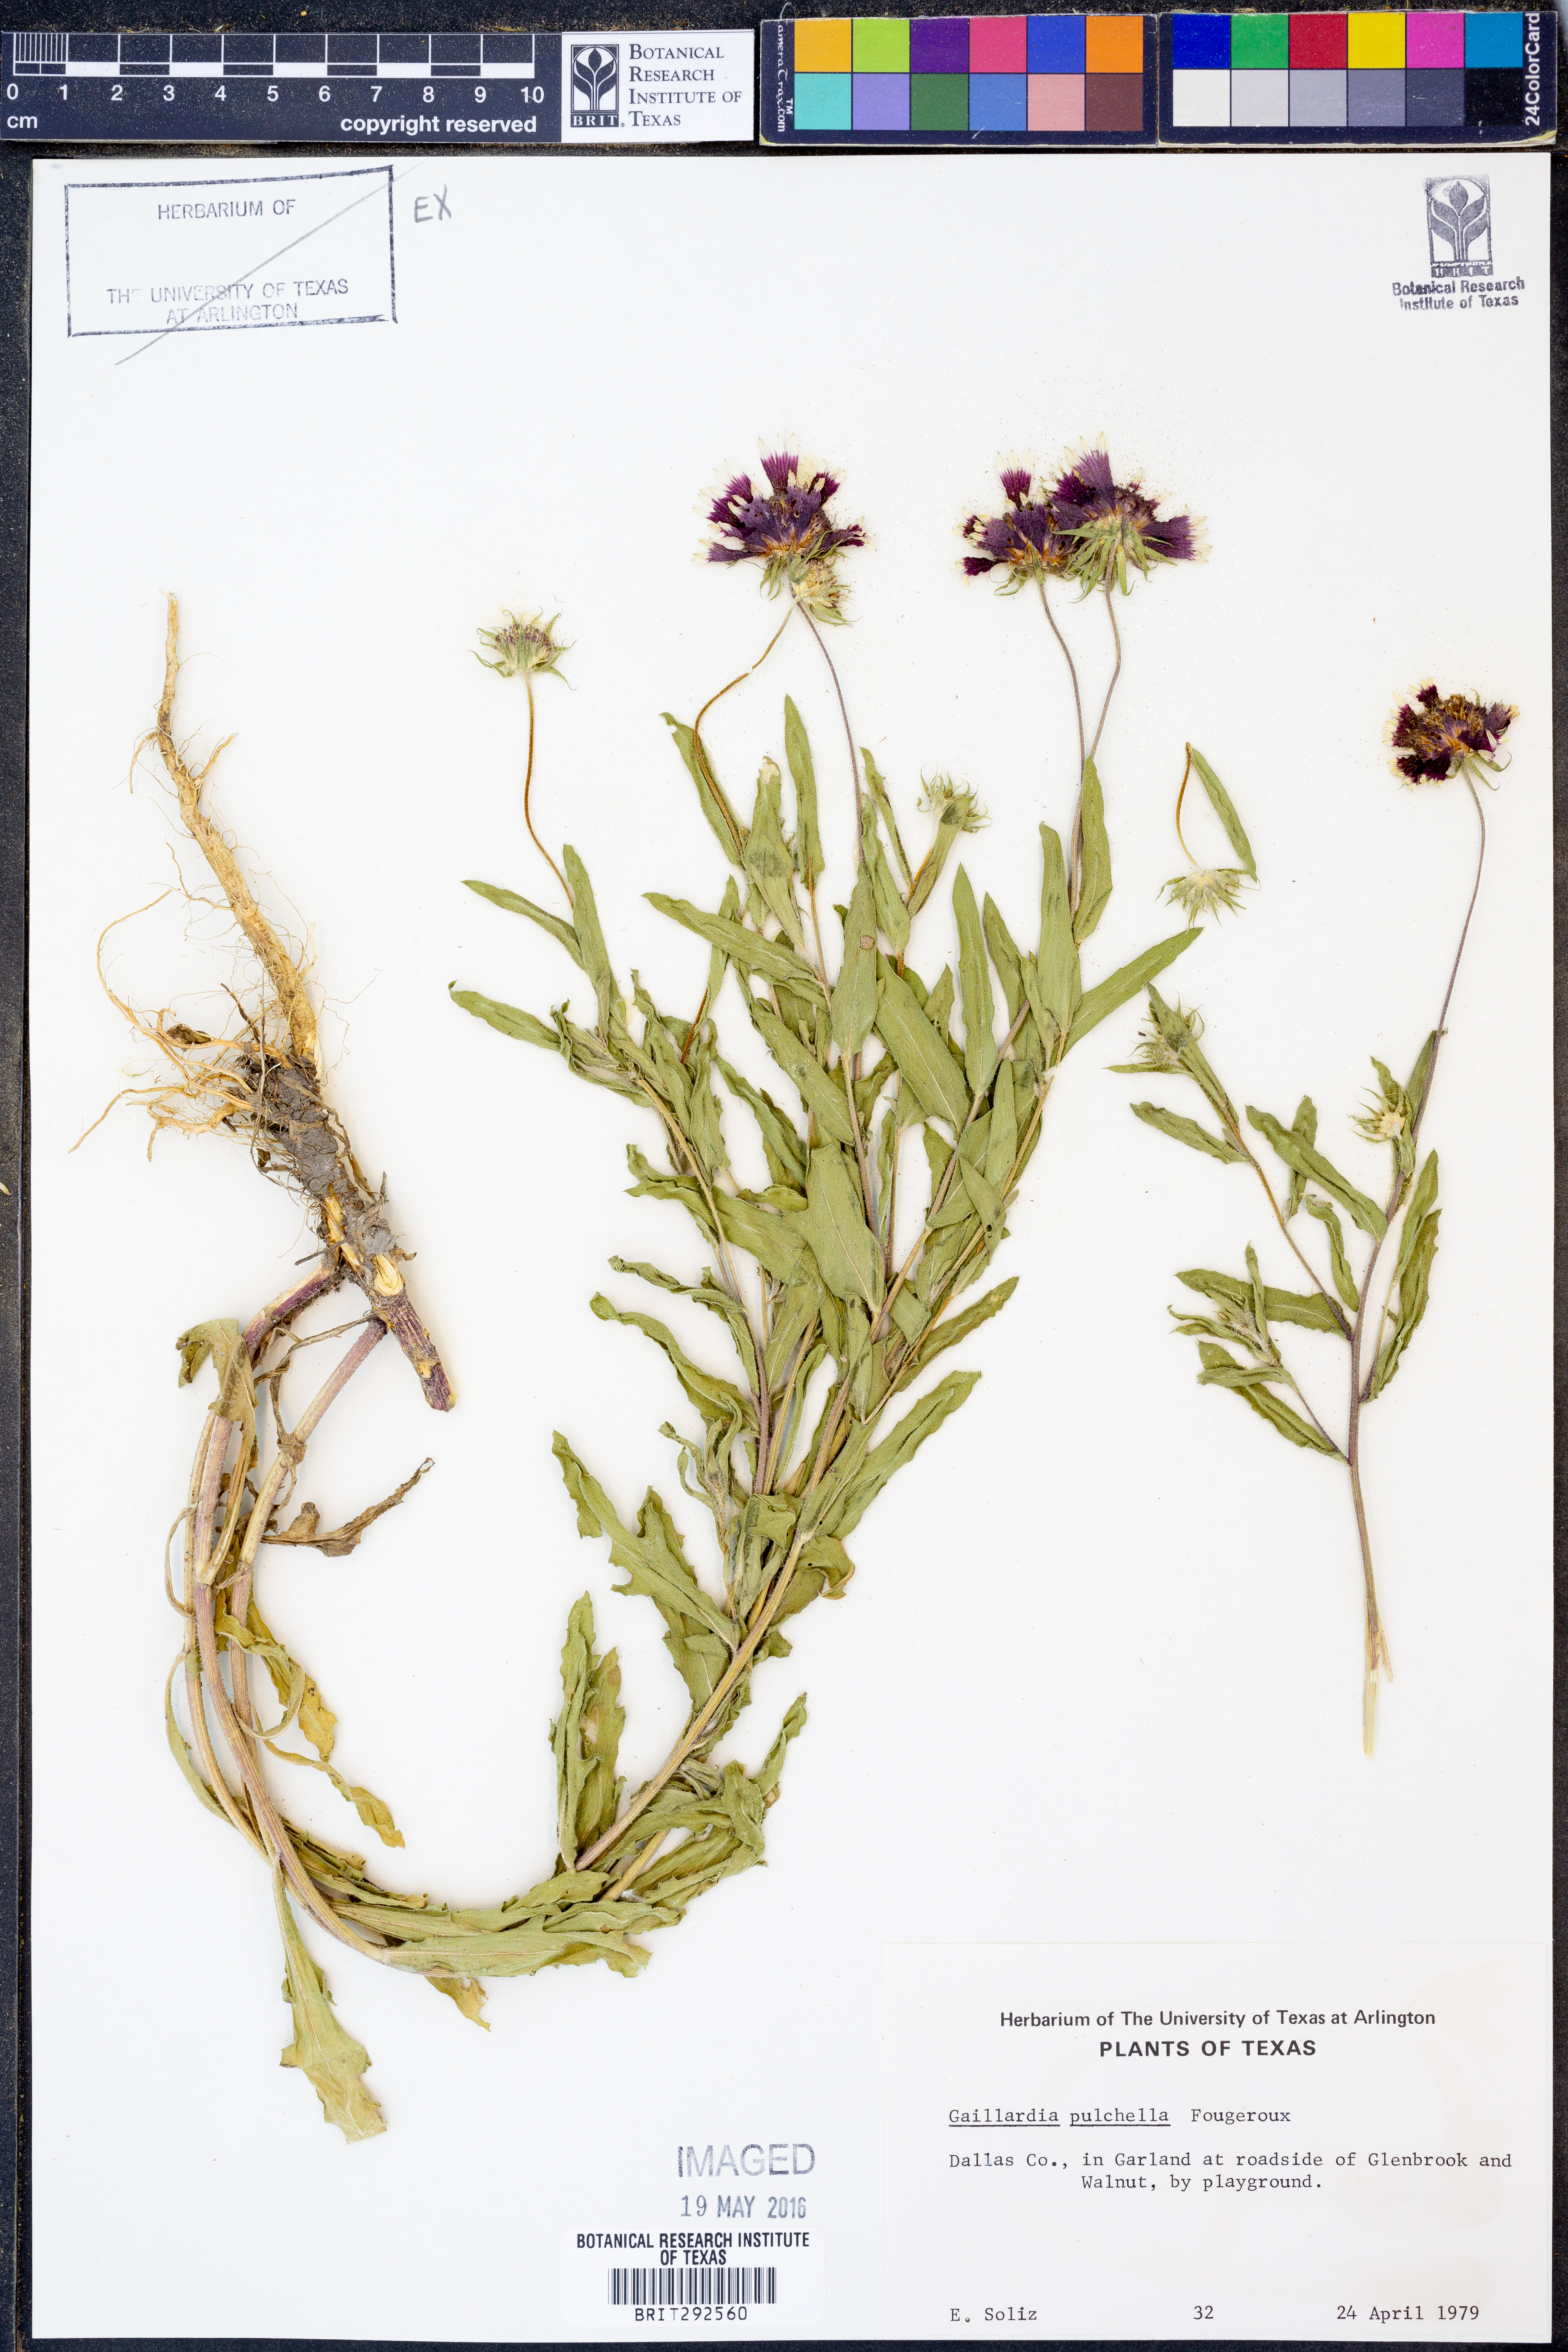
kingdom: Plantae
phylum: Tracheophyta
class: Magnoliopsida
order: Asterales
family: Asteraceae
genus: Gaillardia
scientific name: Gaillardia pulchella
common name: Firewheel
